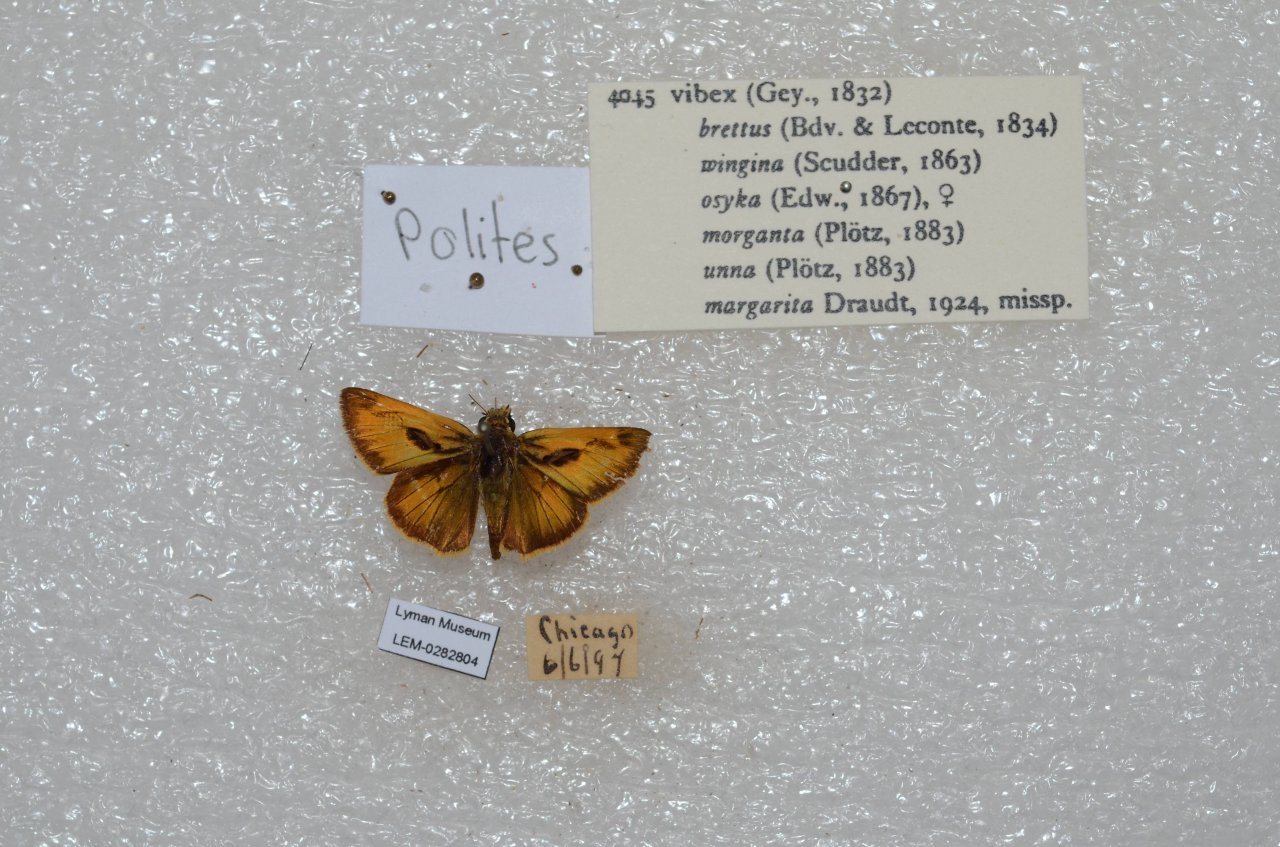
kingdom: Animalia
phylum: Arthropoda
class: Insecta
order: Lepidoptera
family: Hesperiidae
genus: Polites
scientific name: Polites vibex
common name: Whirlabout
